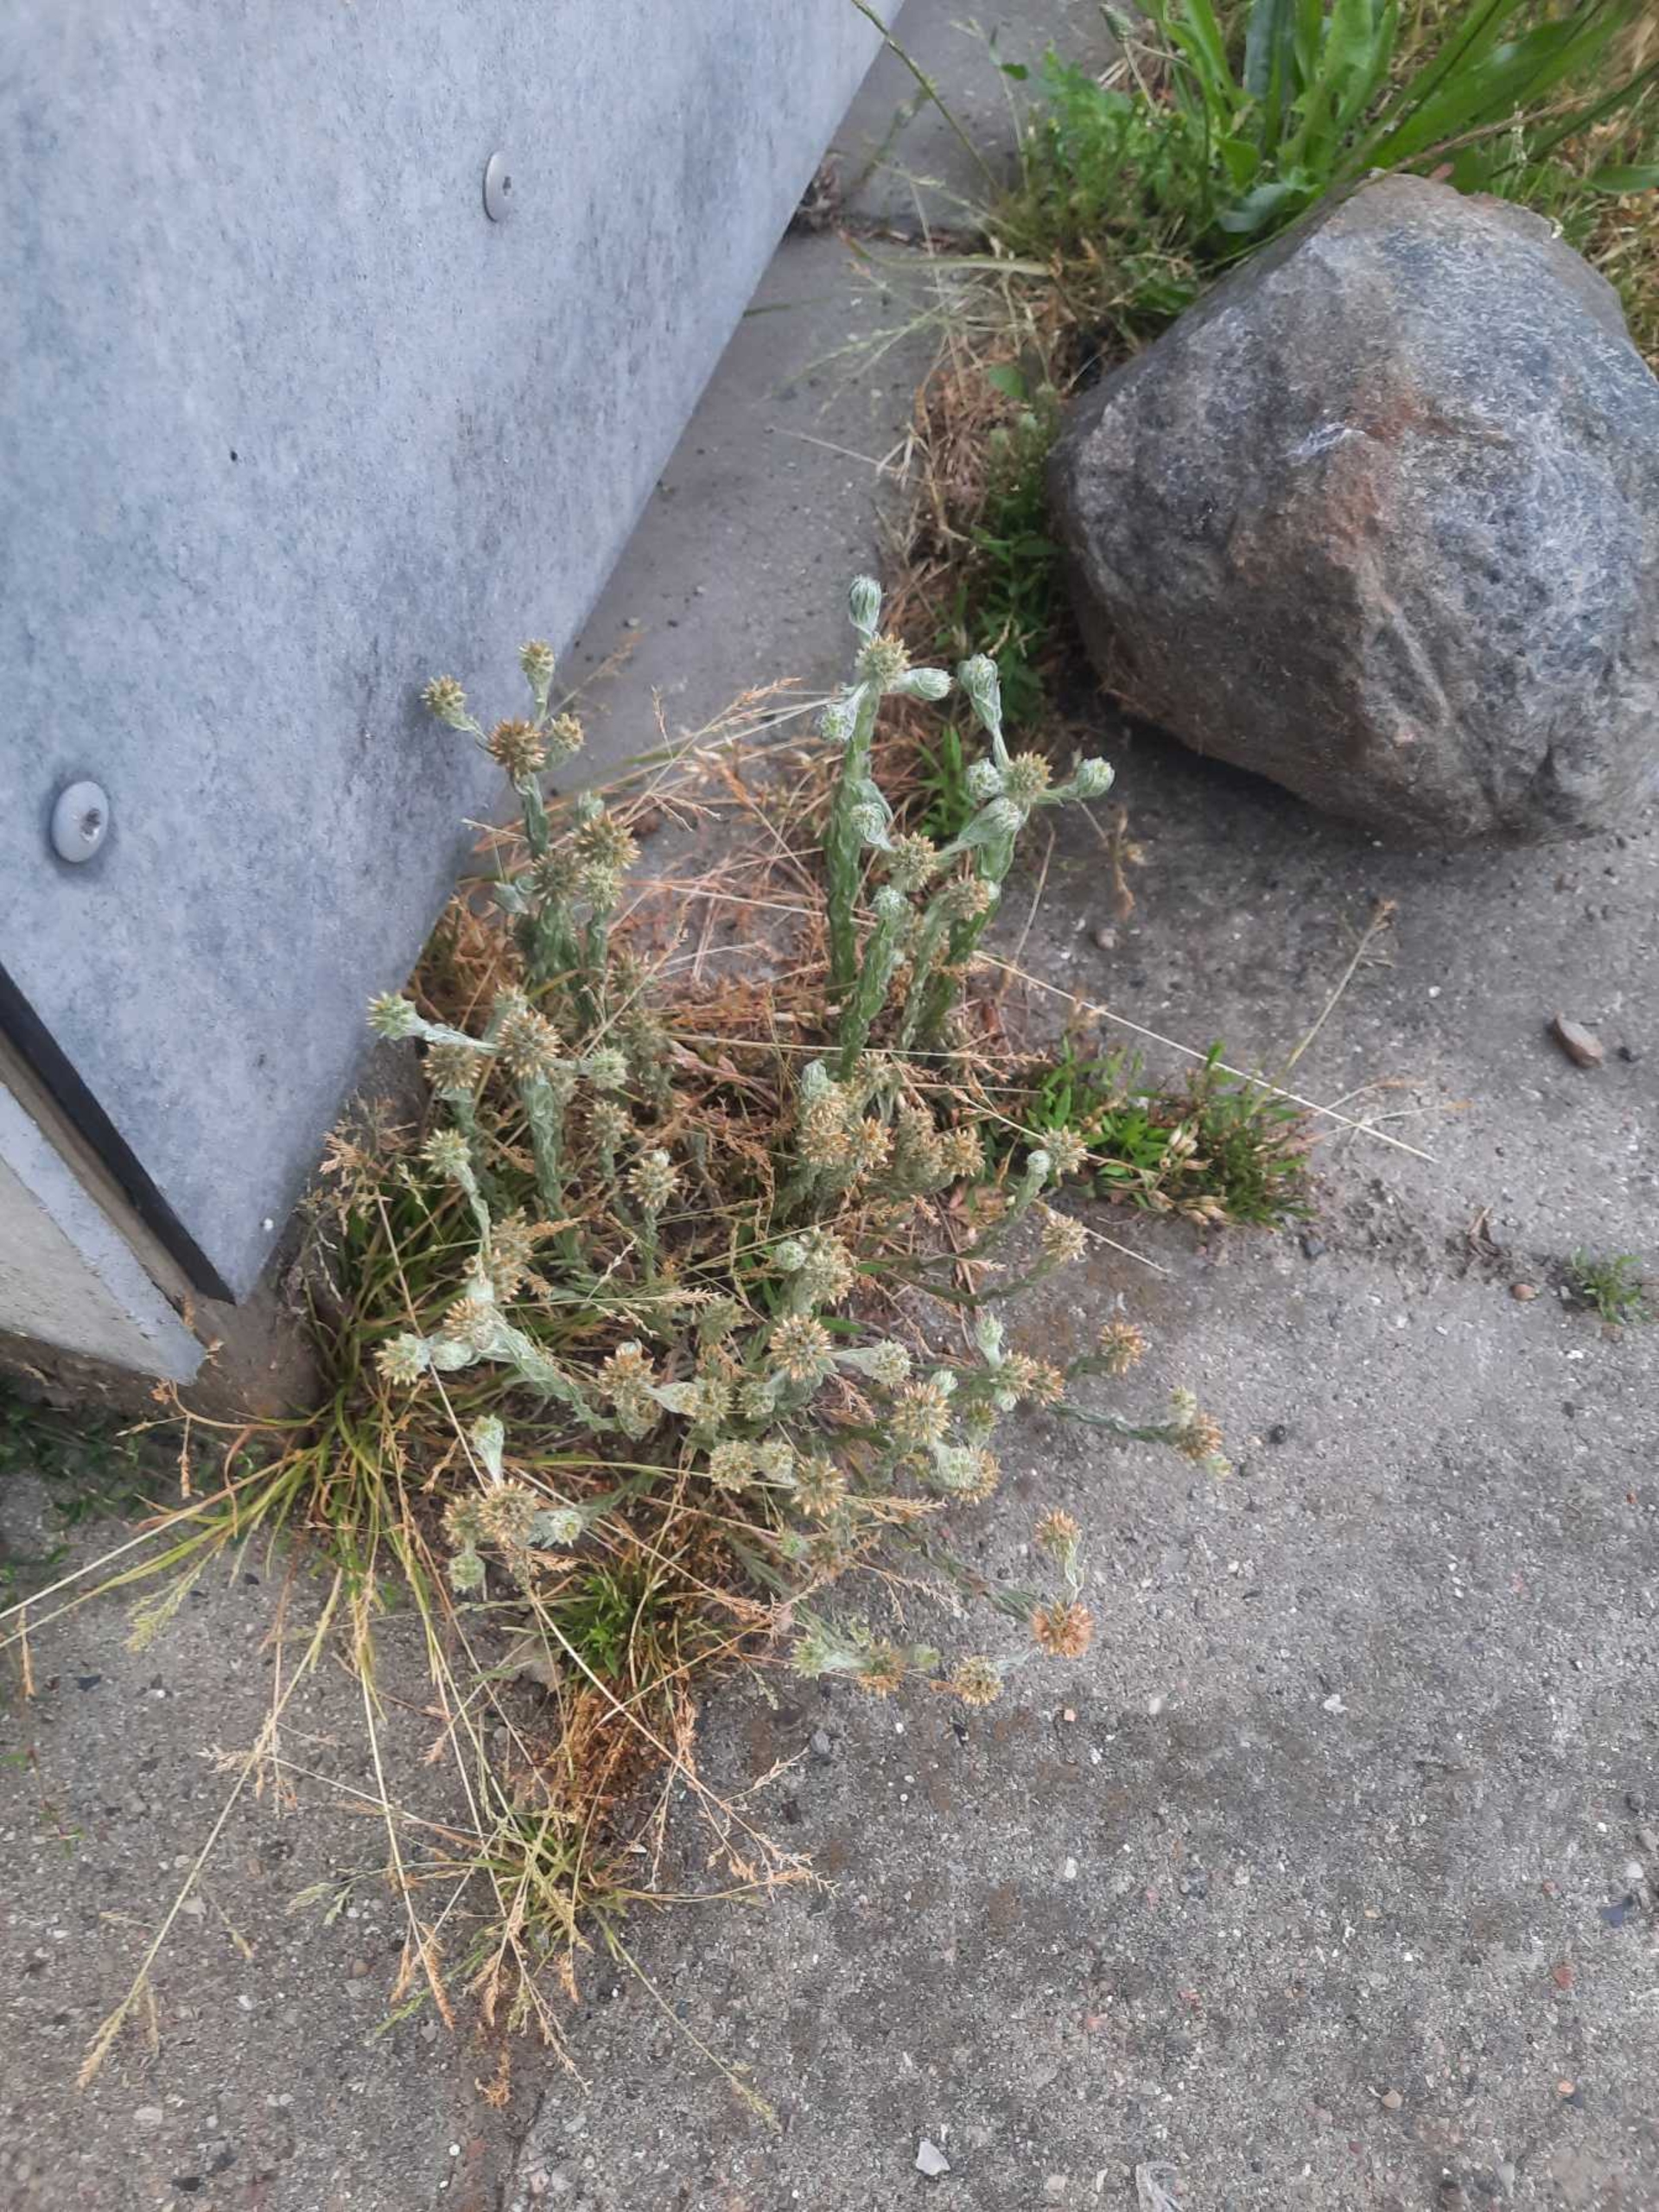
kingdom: Plantae
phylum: Tracheophyta
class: Magnoliopsida
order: Asterales
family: Asteraceae
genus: Filago
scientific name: Filago germanica
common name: Kugle-museurt
